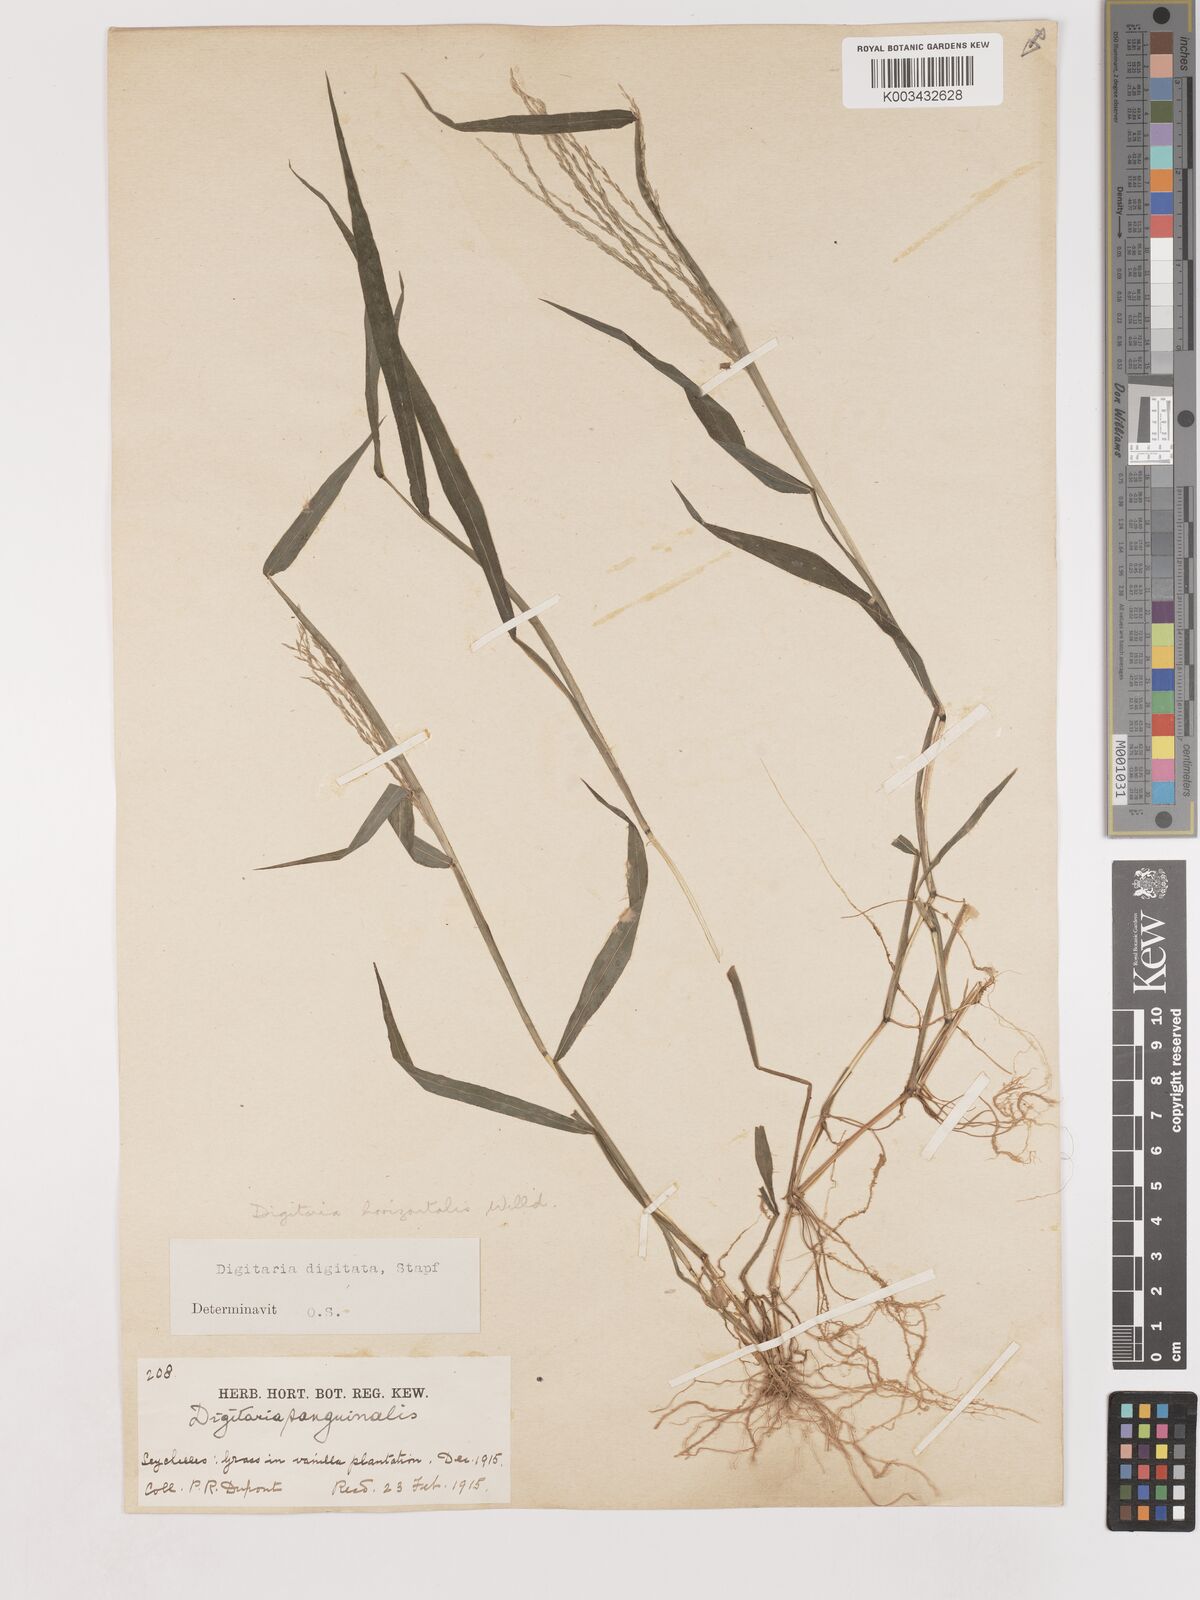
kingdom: Plantae
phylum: Tracheophyta
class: Liliopsida
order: Poales
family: Poaceae
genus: Digitaria
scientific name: Digitaria horizontalis
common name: Jamaican crabgrass
